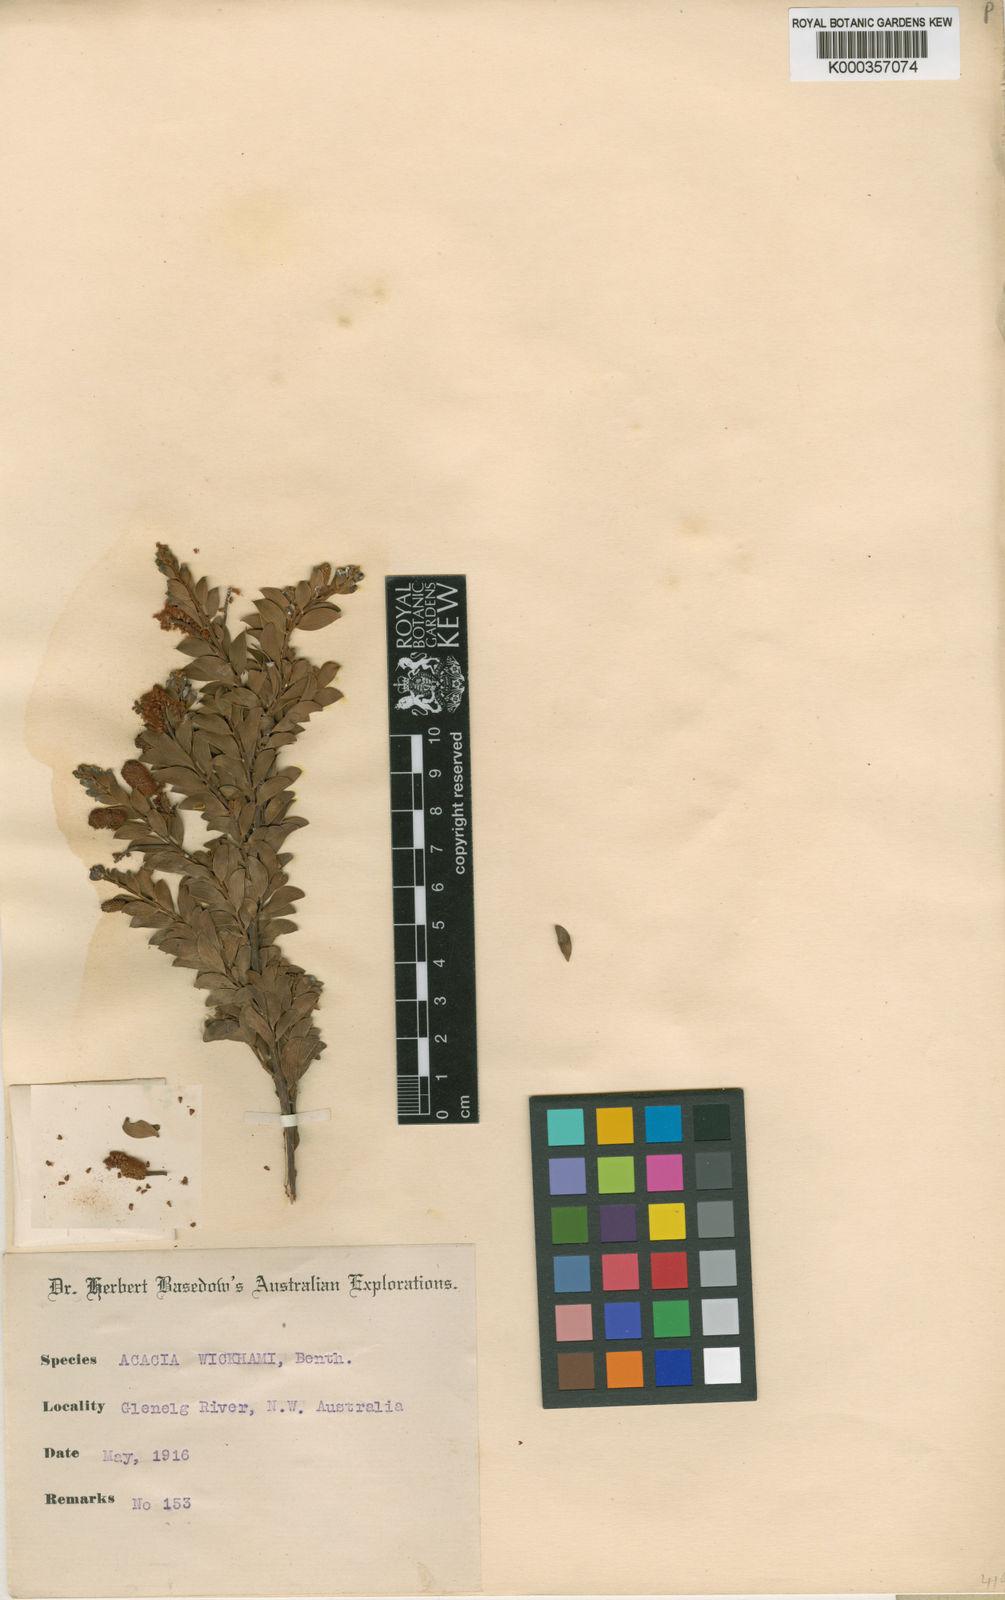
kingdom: Plantae
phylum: Tracheophyta
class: Magnoliopsida
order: Fabales
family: Fabaceae
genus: Acacia
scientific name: Acacia wickhamii
